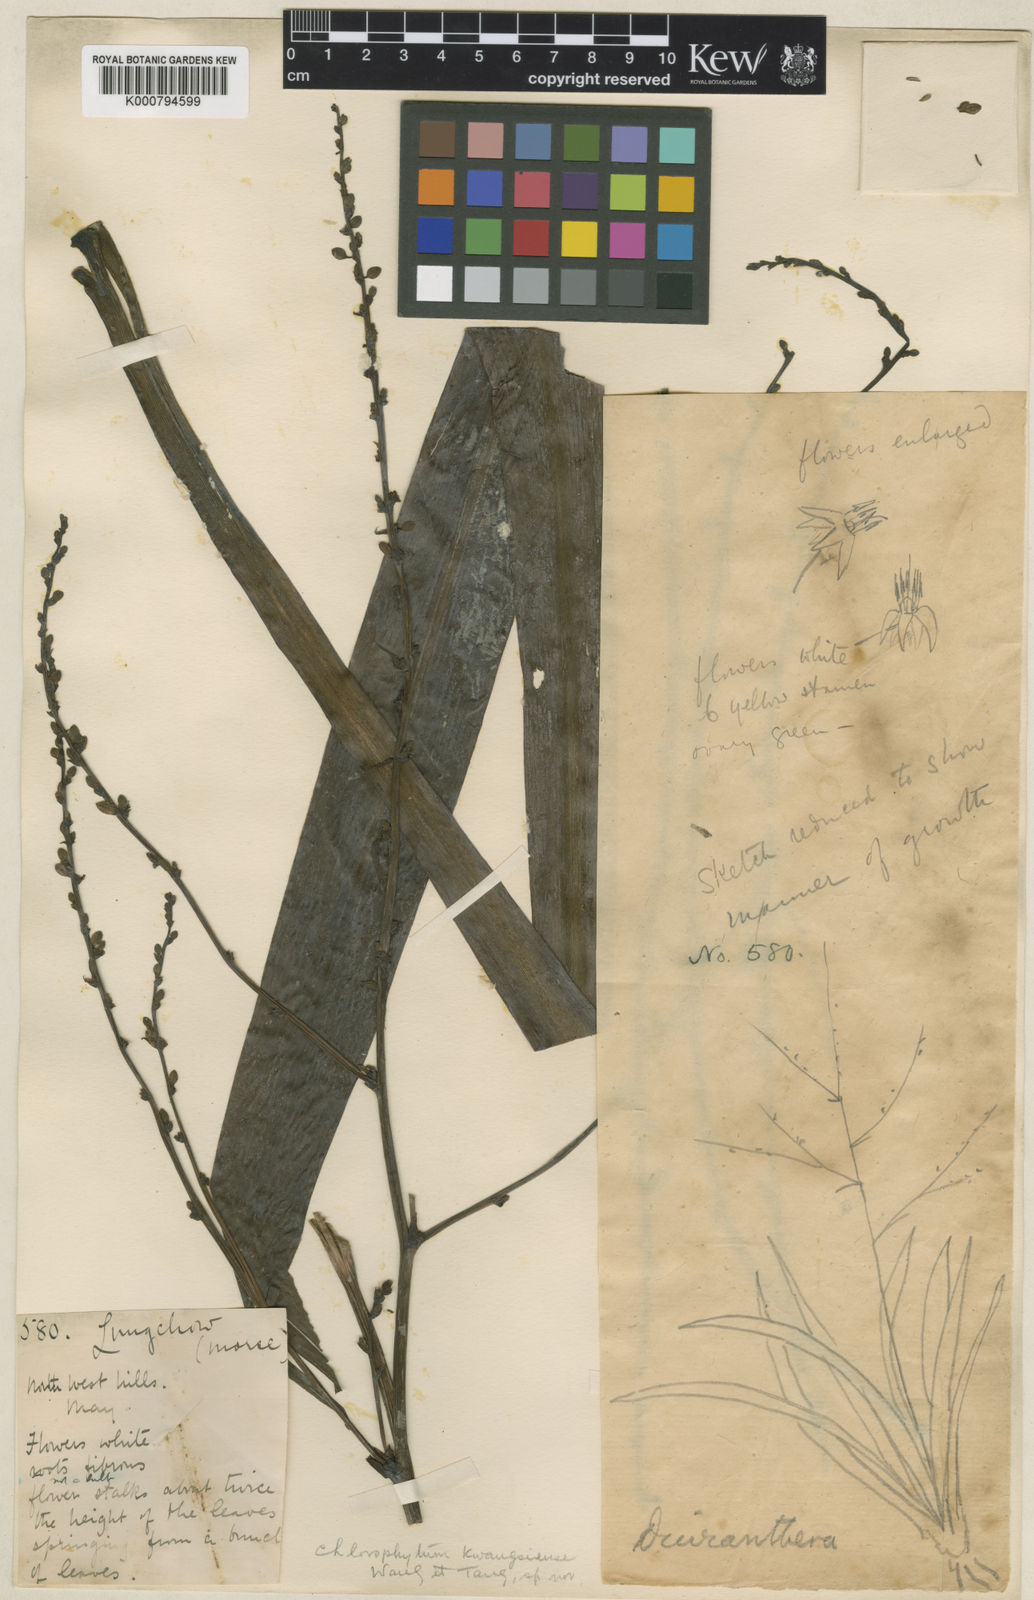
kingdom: Plantae
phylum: Tracheophyta
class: Liliopsida
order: Asparagales
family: Asparagaceae
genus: Chlorophytum
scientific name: Chlorophytum
